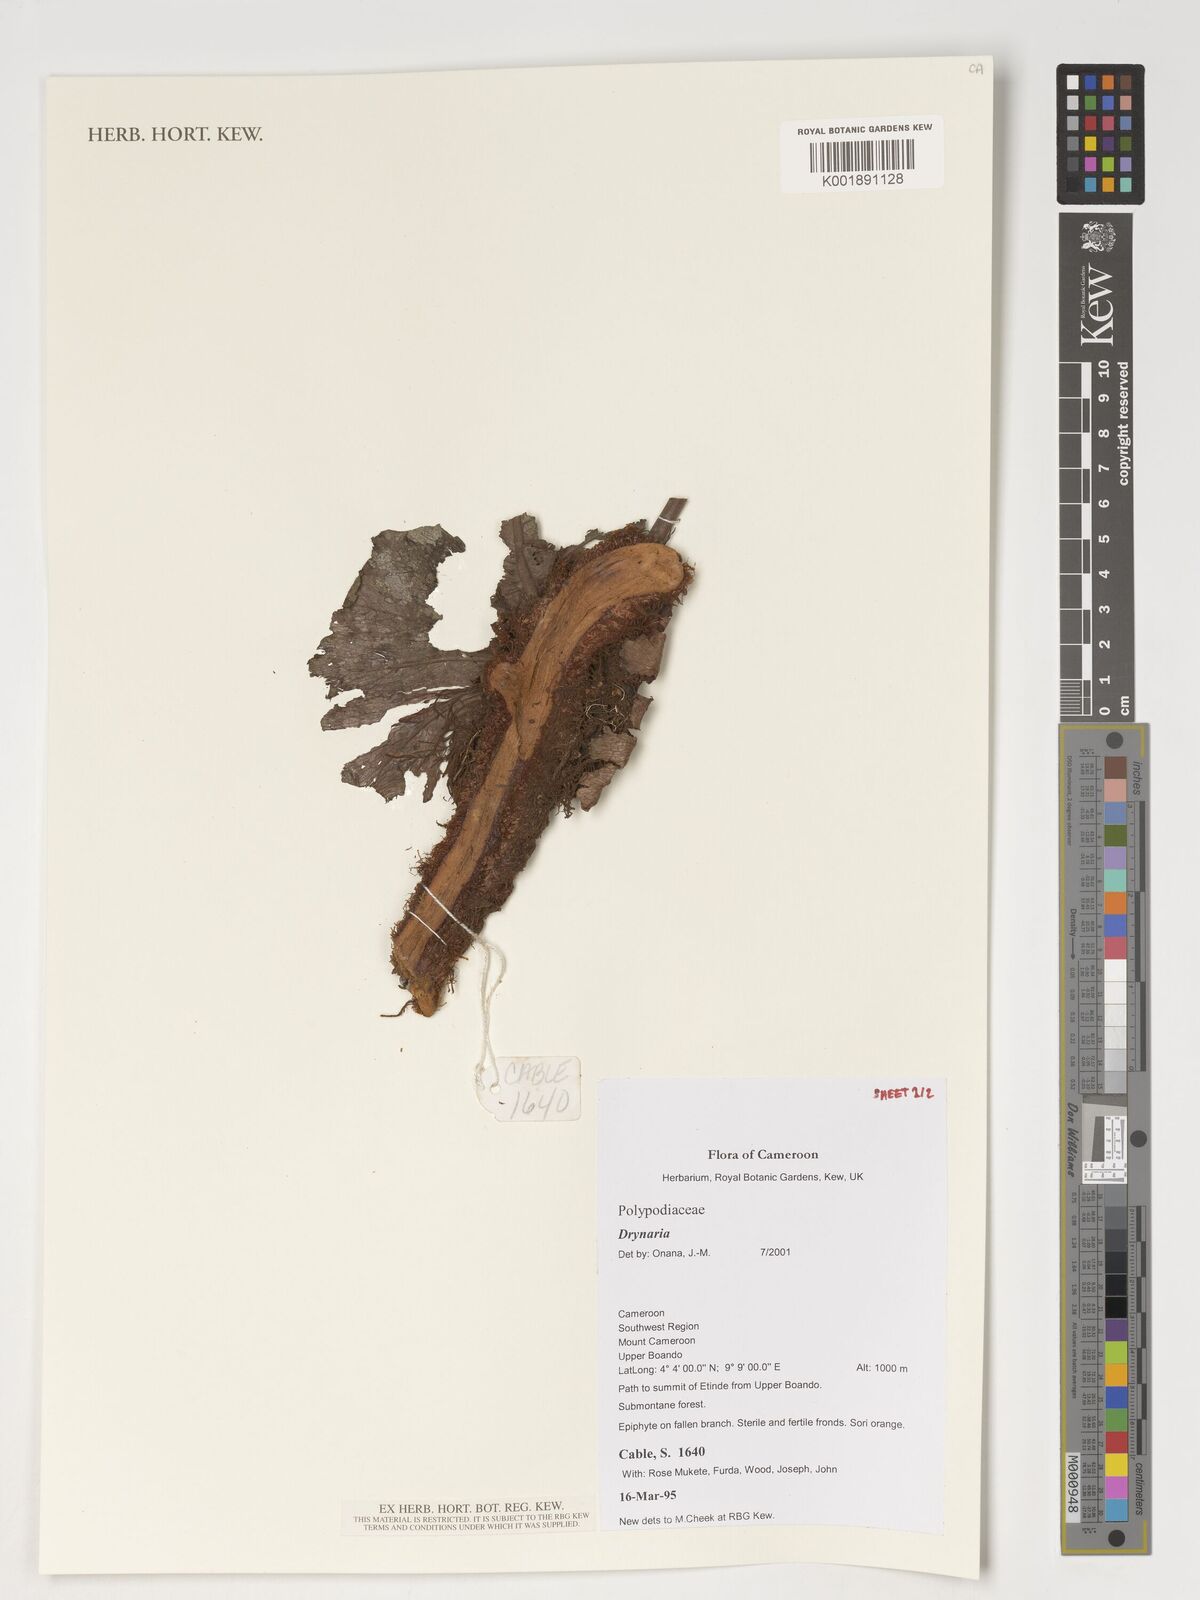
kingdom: Plantae
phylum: Tracheophyta
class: Polypodiopsida
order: Polypodiales
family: Polypodiaceae
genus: Drynaria
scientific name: Drynaria
